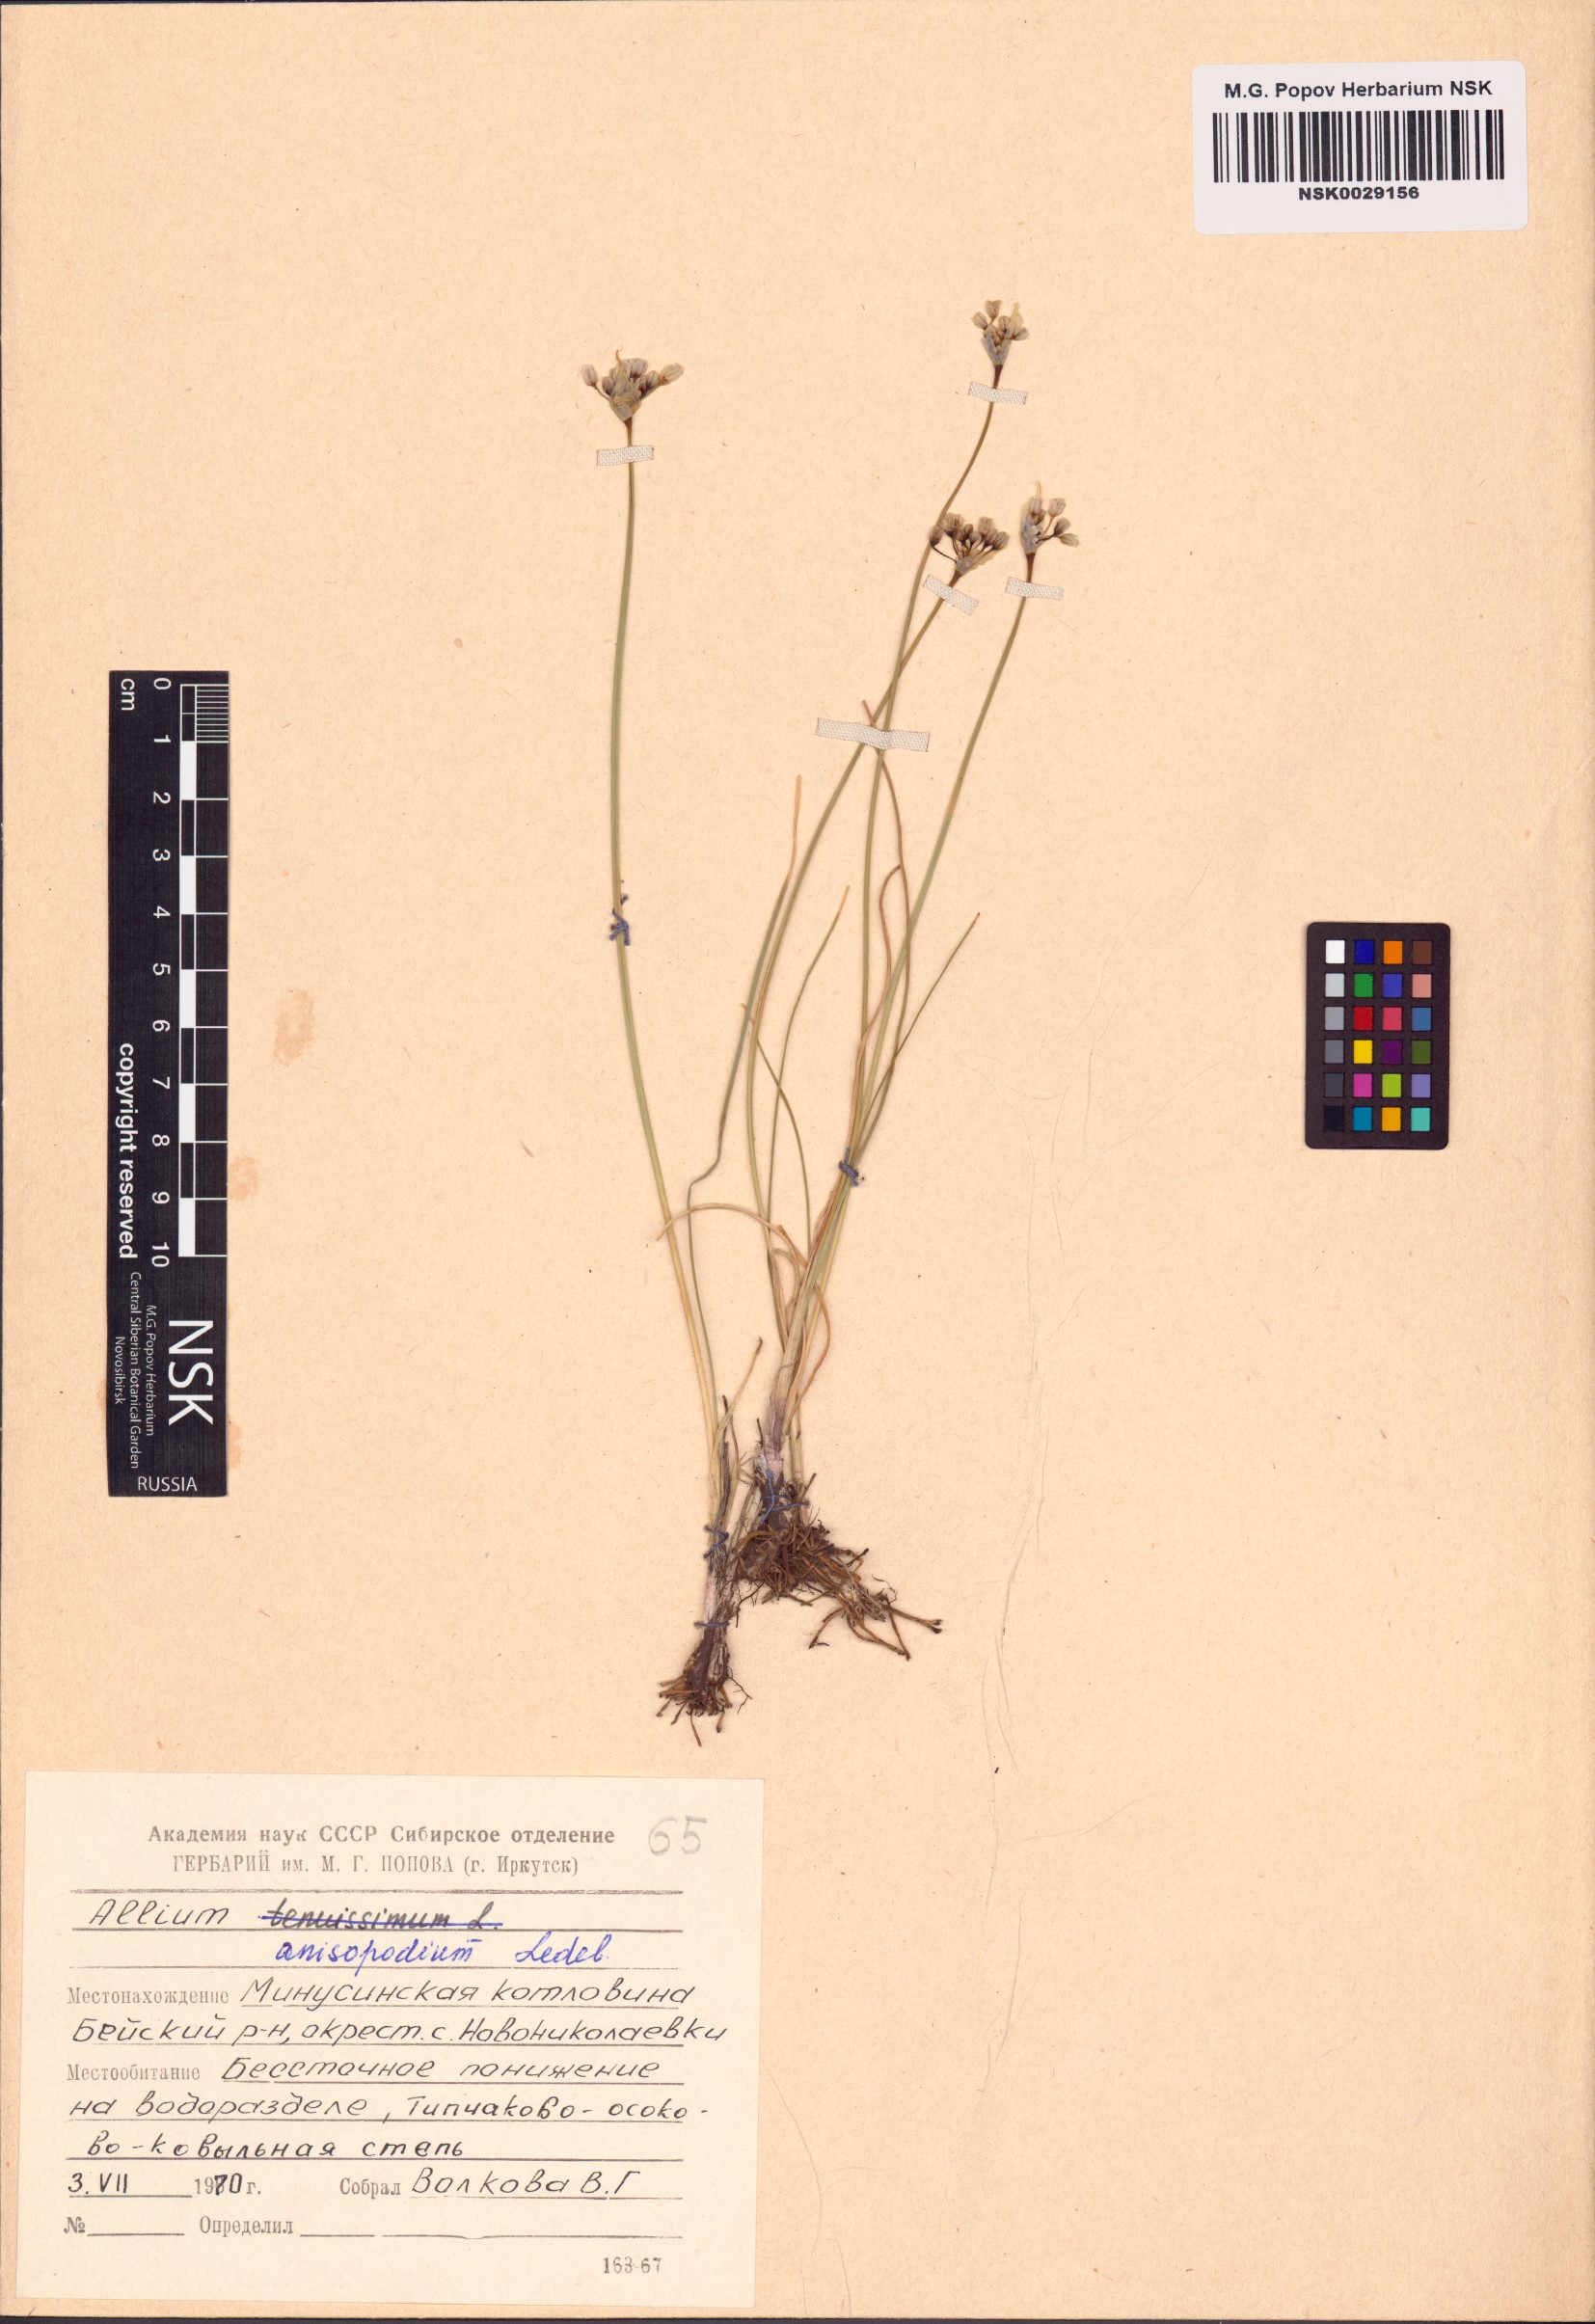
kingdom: Plantae
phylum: Tracheophyta
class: Liliopsida
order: Asparagales
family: Amaryllidaceae
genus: Allium
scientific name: Allium anisopodium
